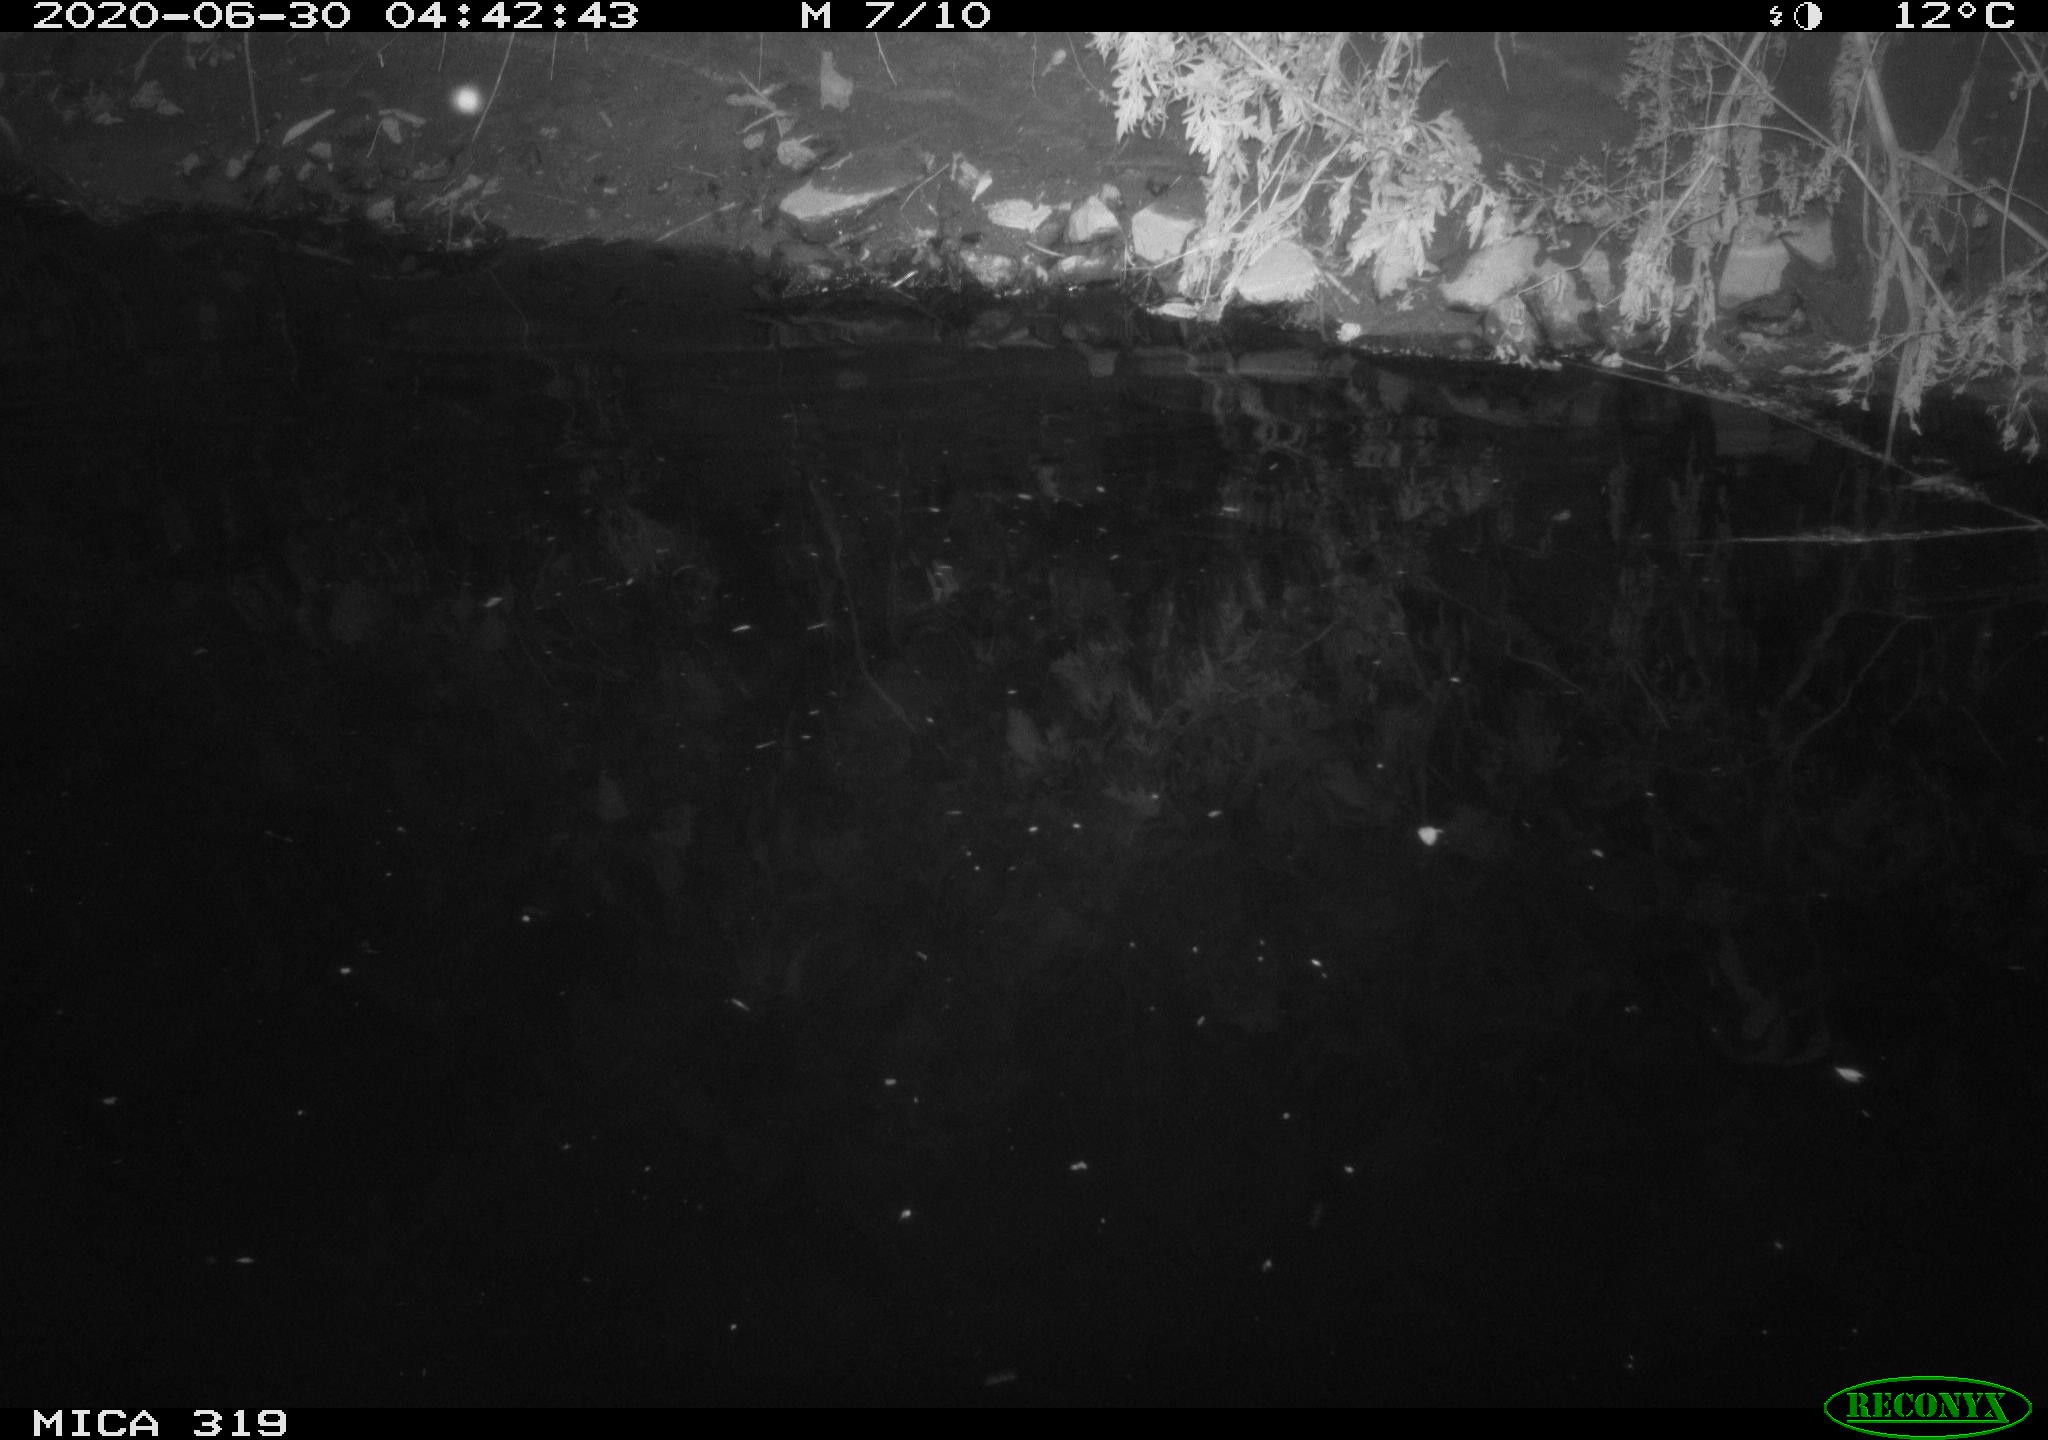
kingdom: Animalia
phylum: Chordata
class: Aves
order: Anseriformes
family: Anatidae
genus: Anas
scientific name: Anas platyrhynchos
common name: Mallard
